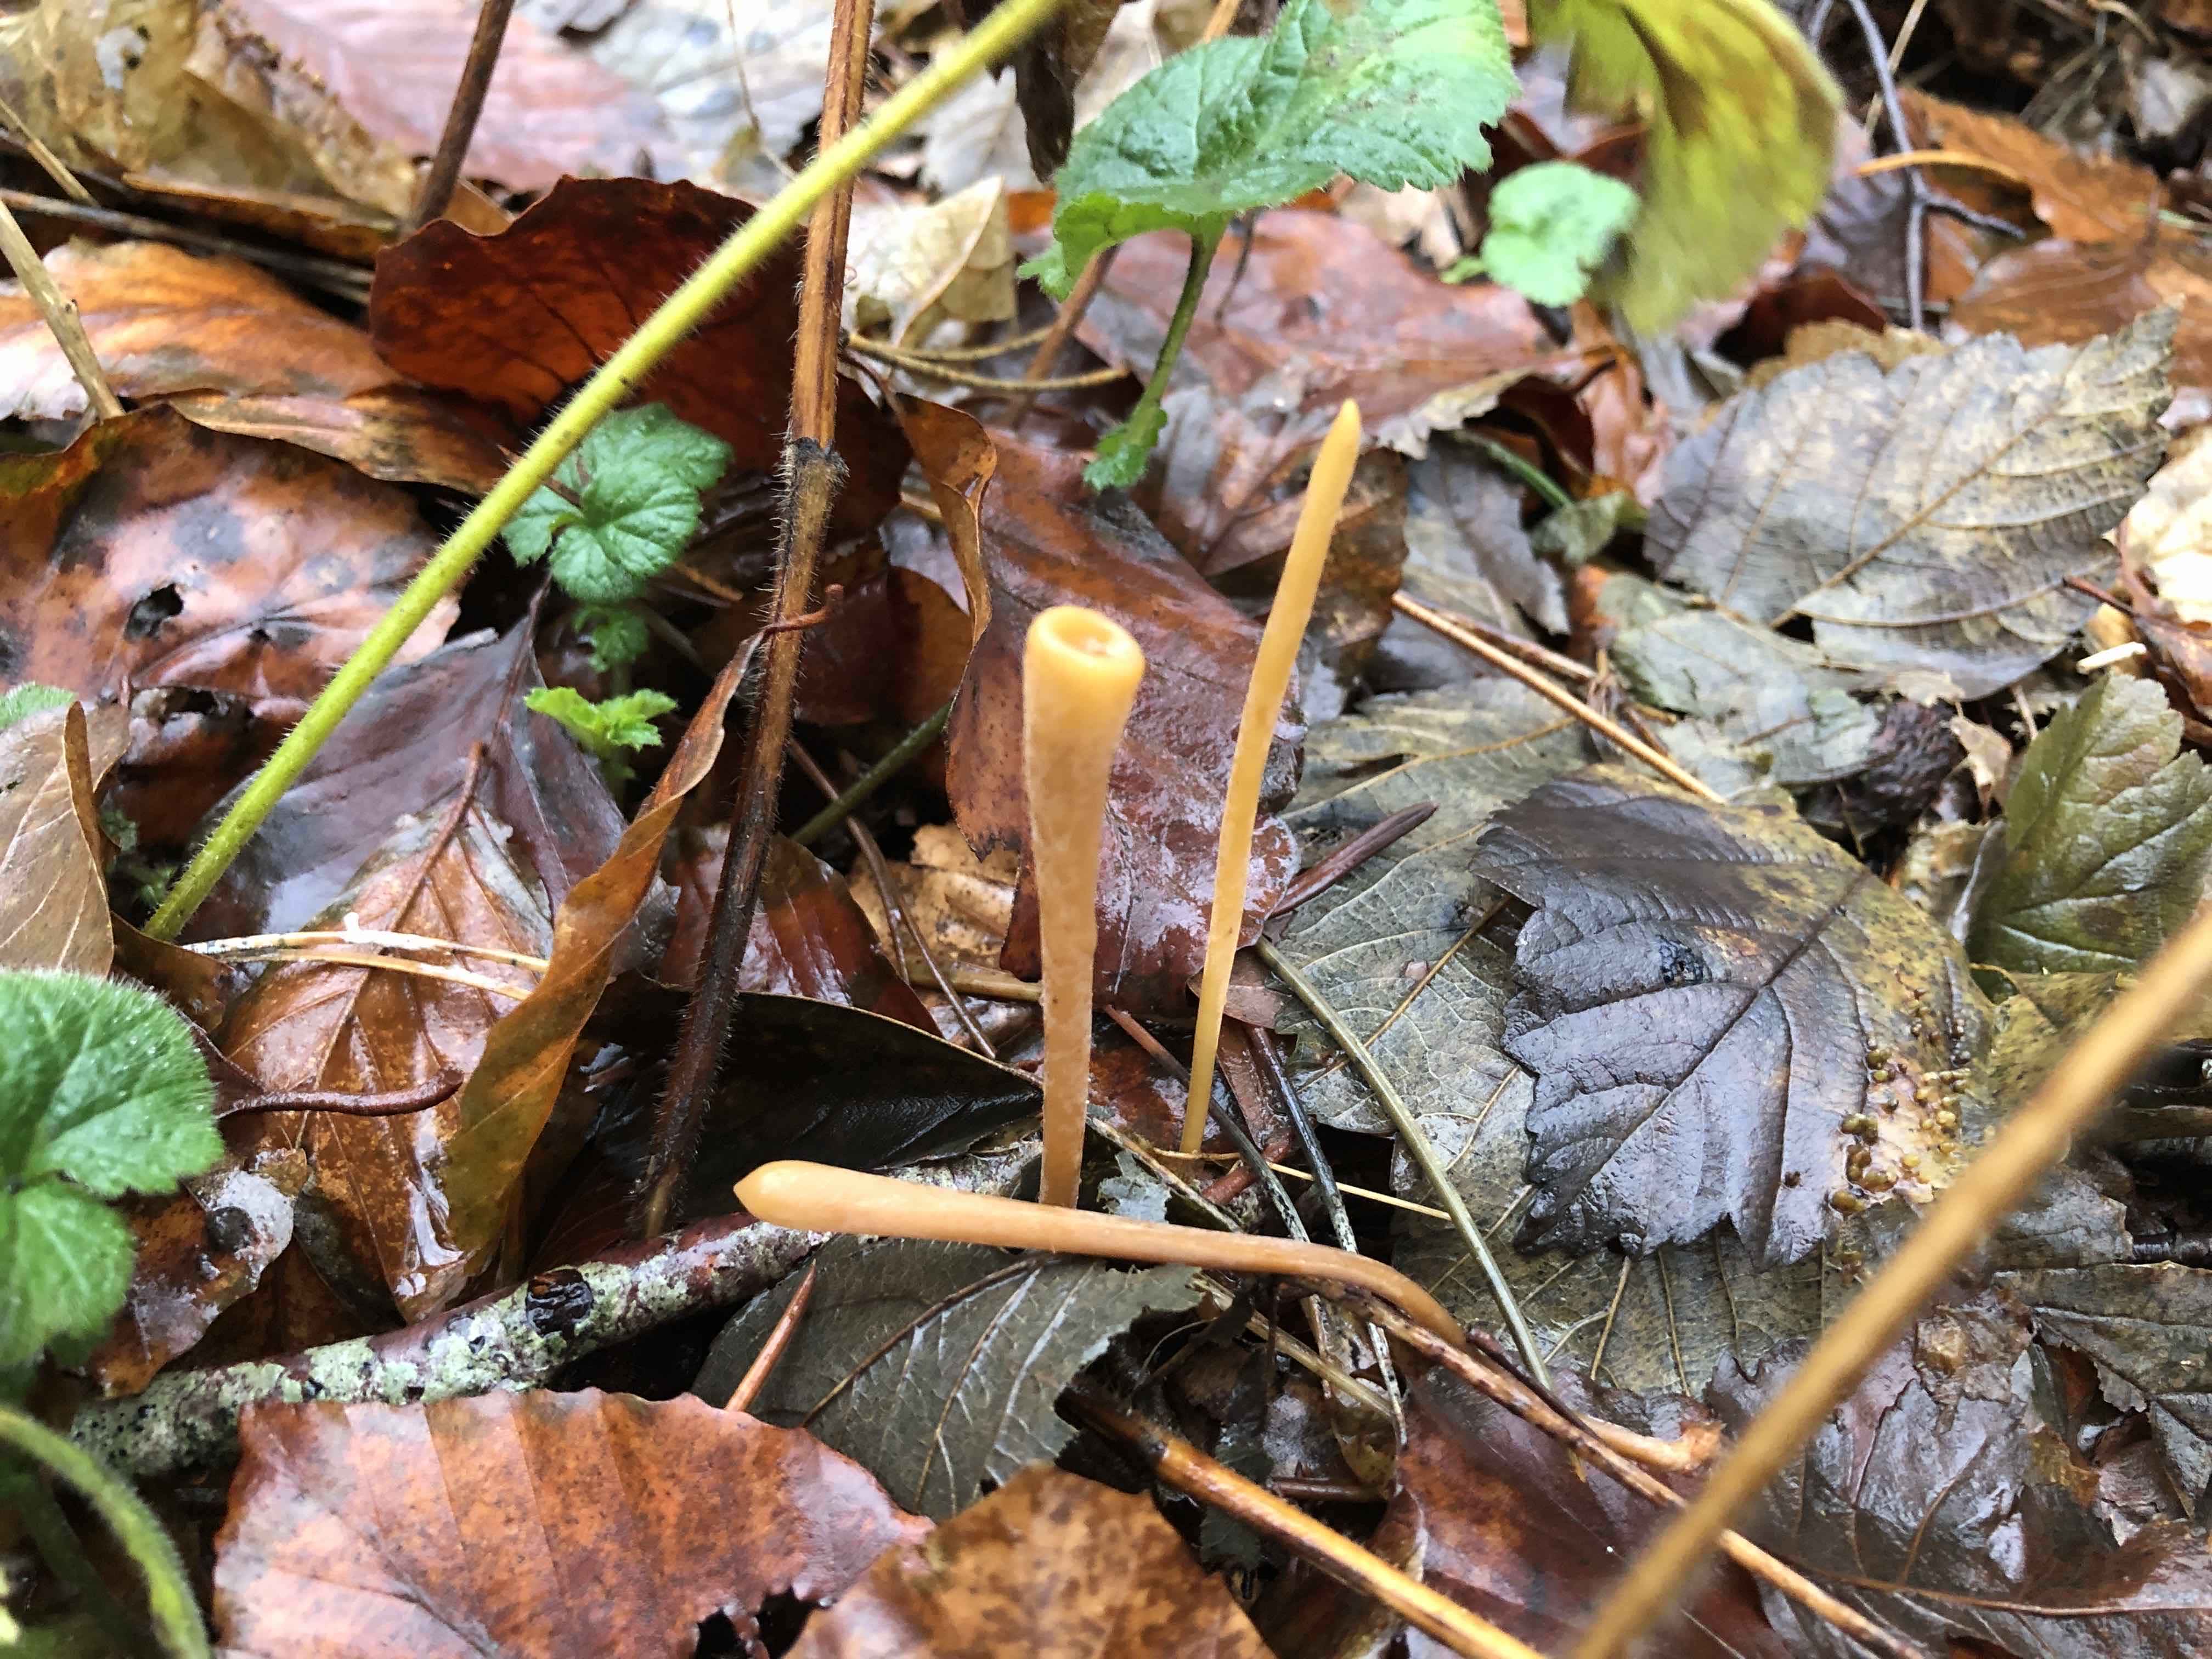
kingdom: Fungi
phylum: Basidiomycota
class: Agaricomycetes
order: Agaricales
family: Typhulaceae
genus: Typhula
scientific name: Typhula fistulosa
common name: pibet rørkølle
